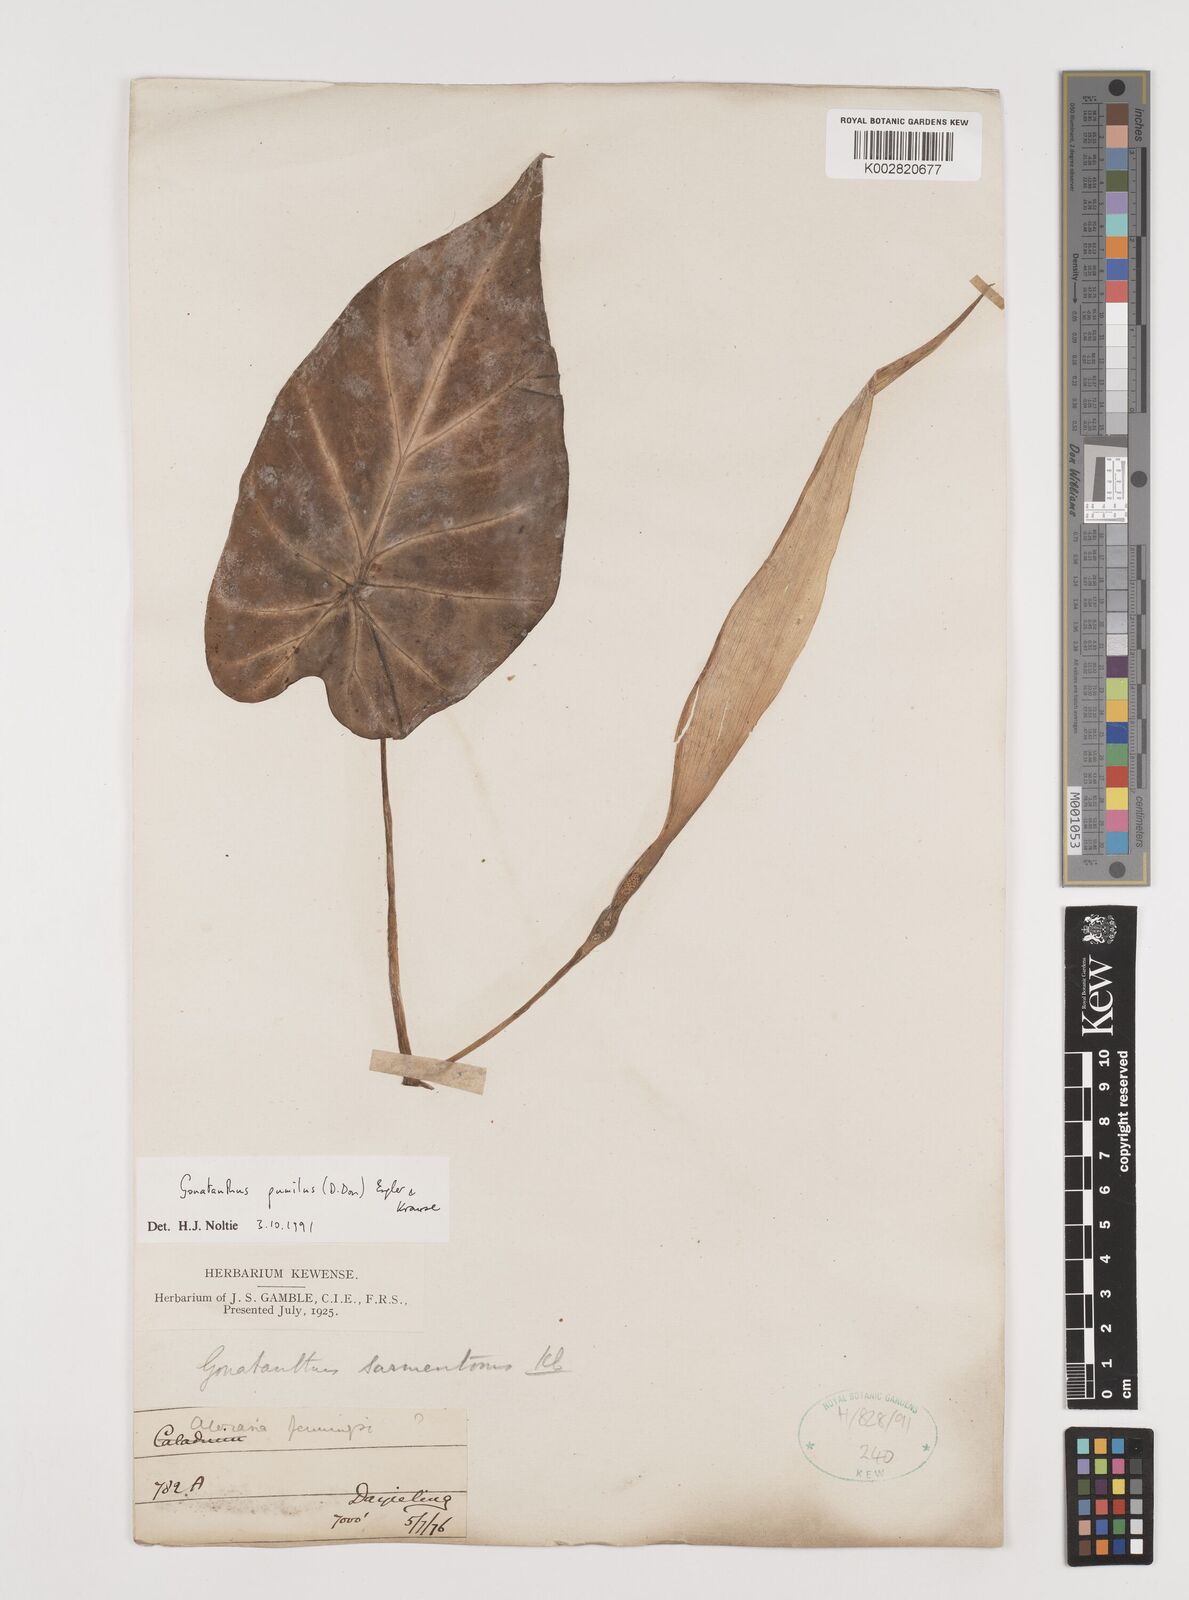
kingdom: Plantae
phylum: Tracheophyta
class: Liliopsida
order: Alismatales
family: Araceae
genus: Remusatia
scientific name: Remusatia pumila
